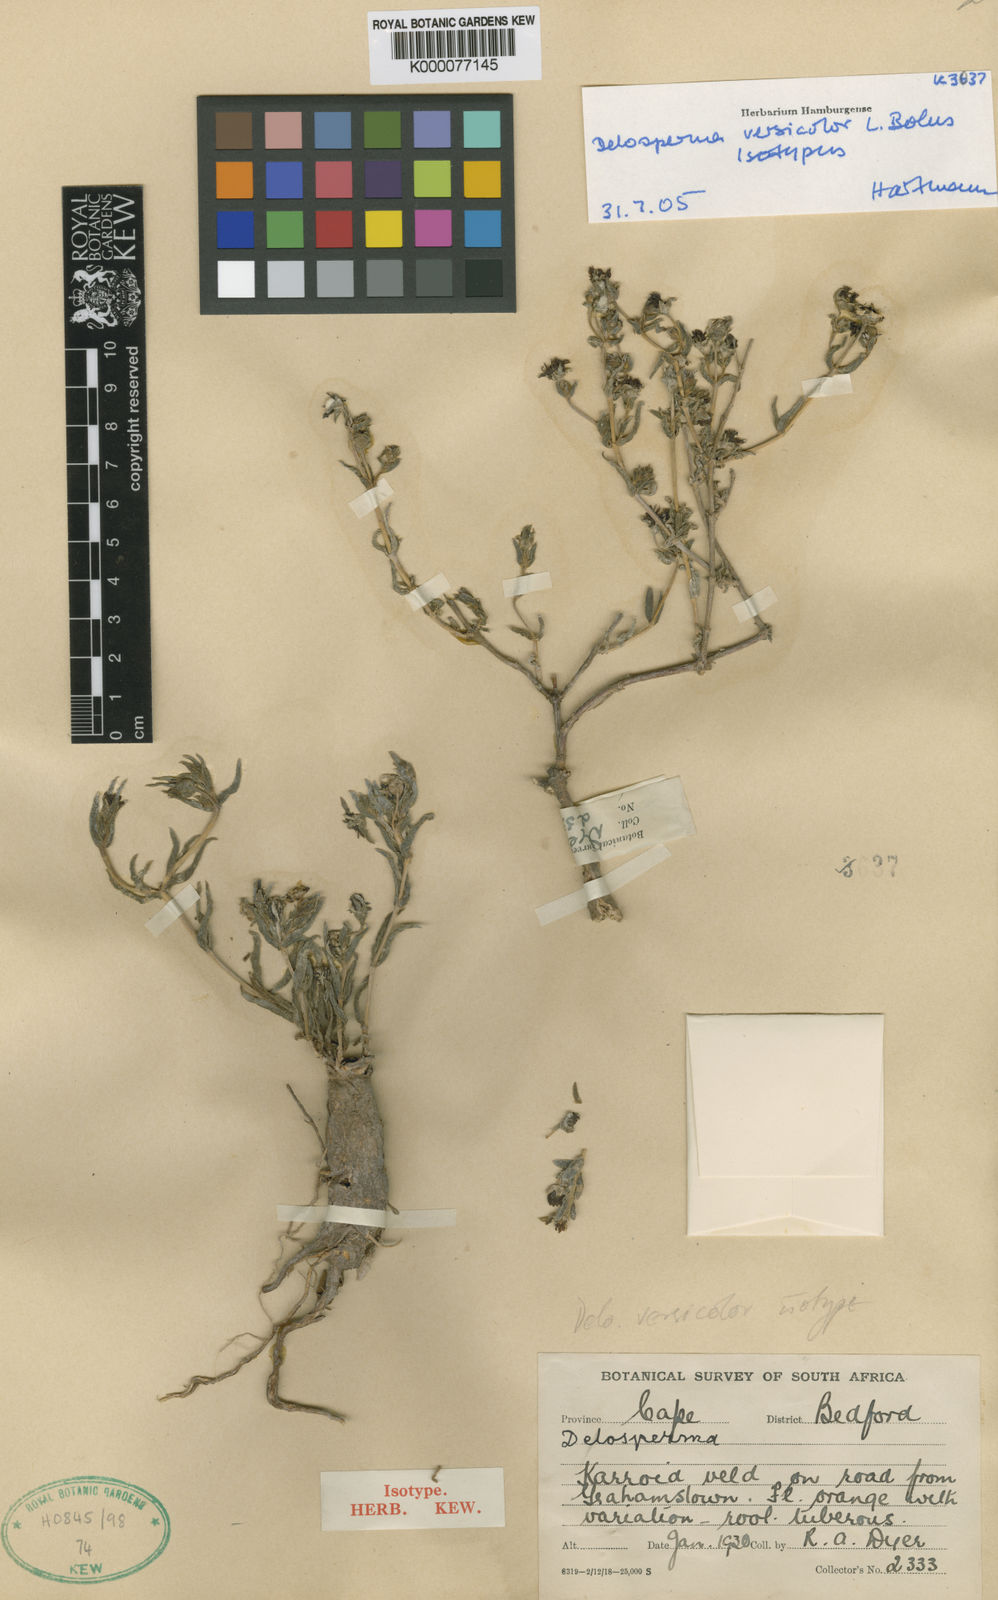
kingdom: Plantae
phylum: Tracheophyta
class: Magnoliopsida
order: Caryophyllales
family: Aizoaceae
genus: Delosperma
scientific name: Delosperma versicolor
